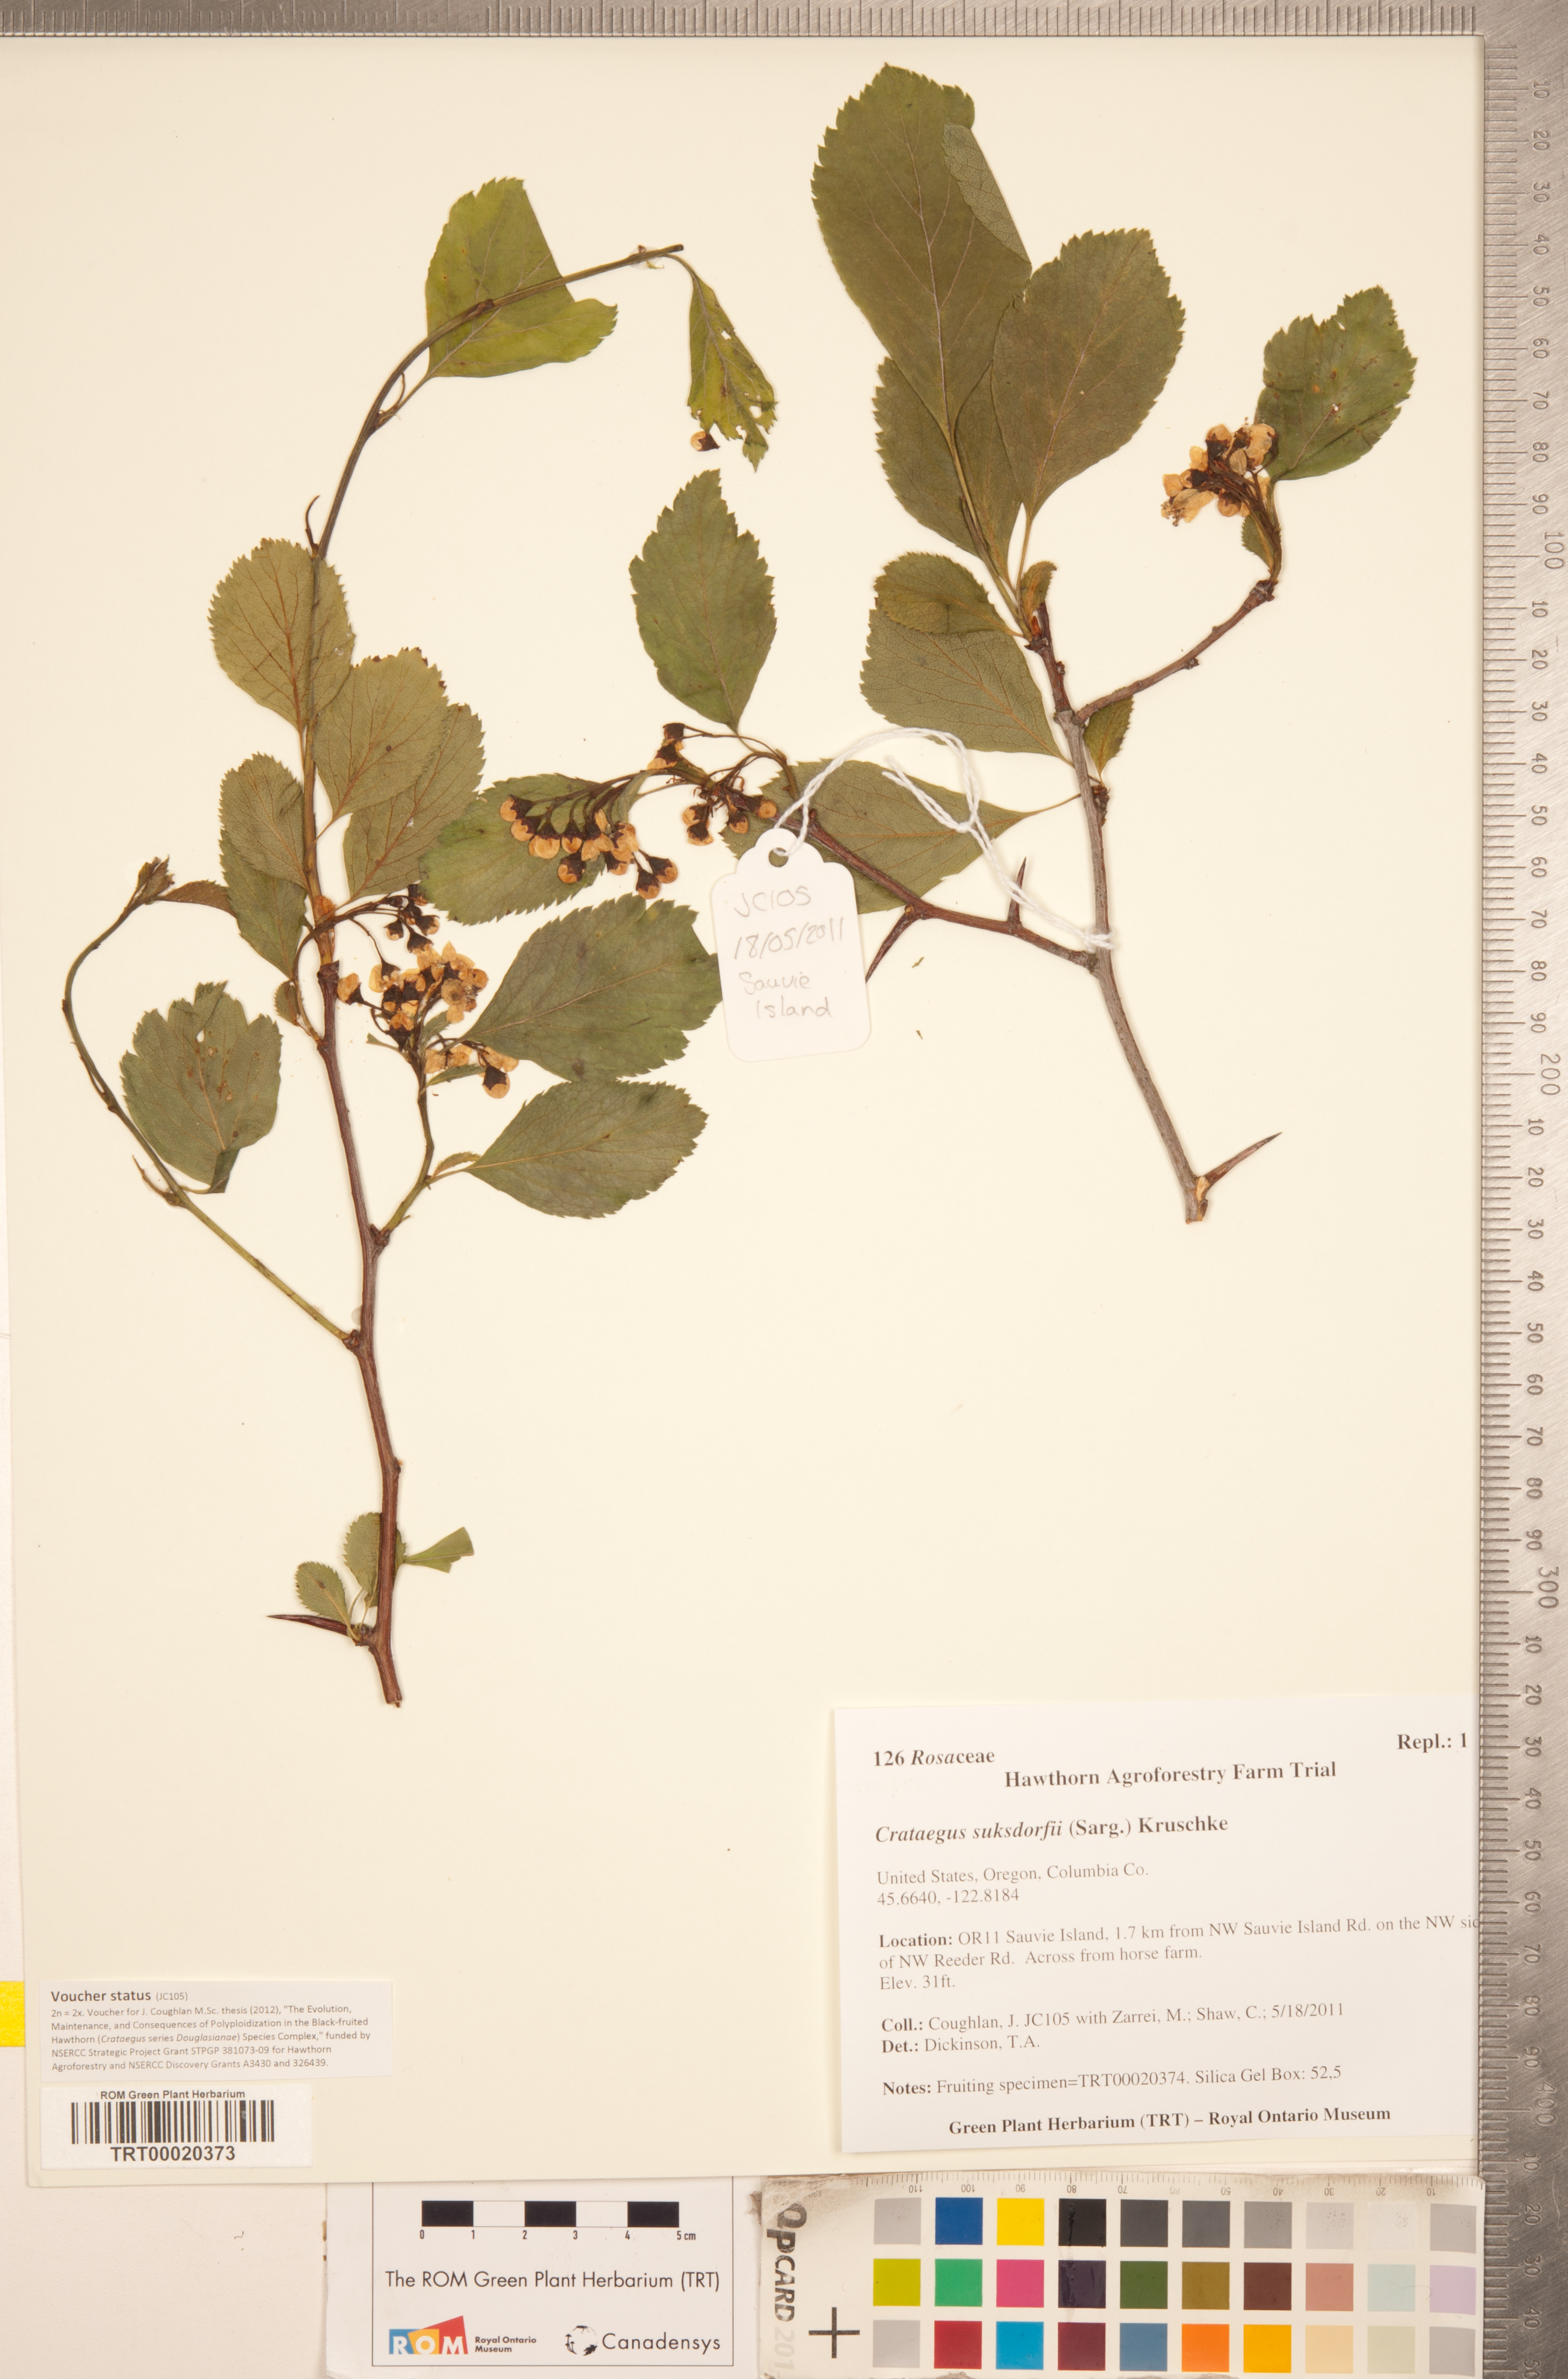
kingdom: Plantae
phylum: Tracheophyta
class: Magnoliopsida
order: Rosales
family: Rosaceae
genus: Crataegus
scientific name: Crataegus gaylussacia
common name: Huckleberry hawthorn
